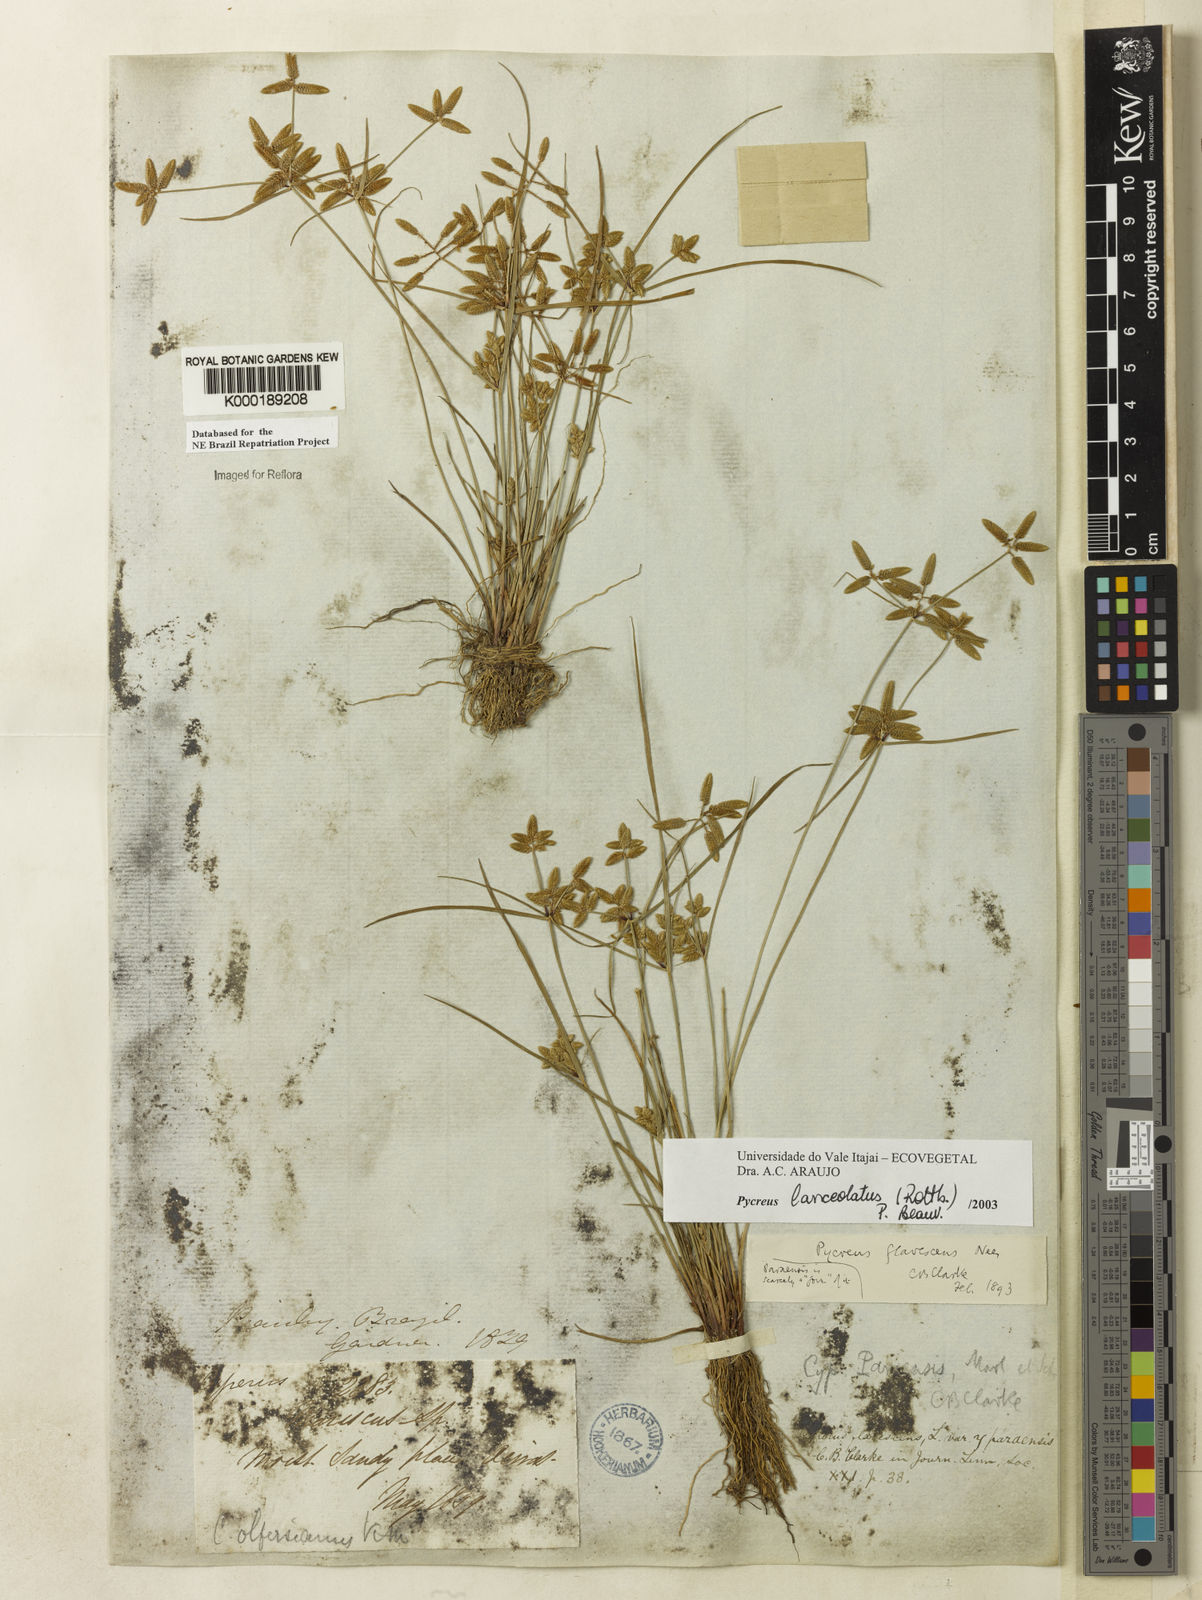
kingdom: Plantae
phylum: Tracheophyta
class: Liliopsida
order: Poales
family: Cyperaceae
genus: Cyperus
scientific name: Cyperus lanceolatus
